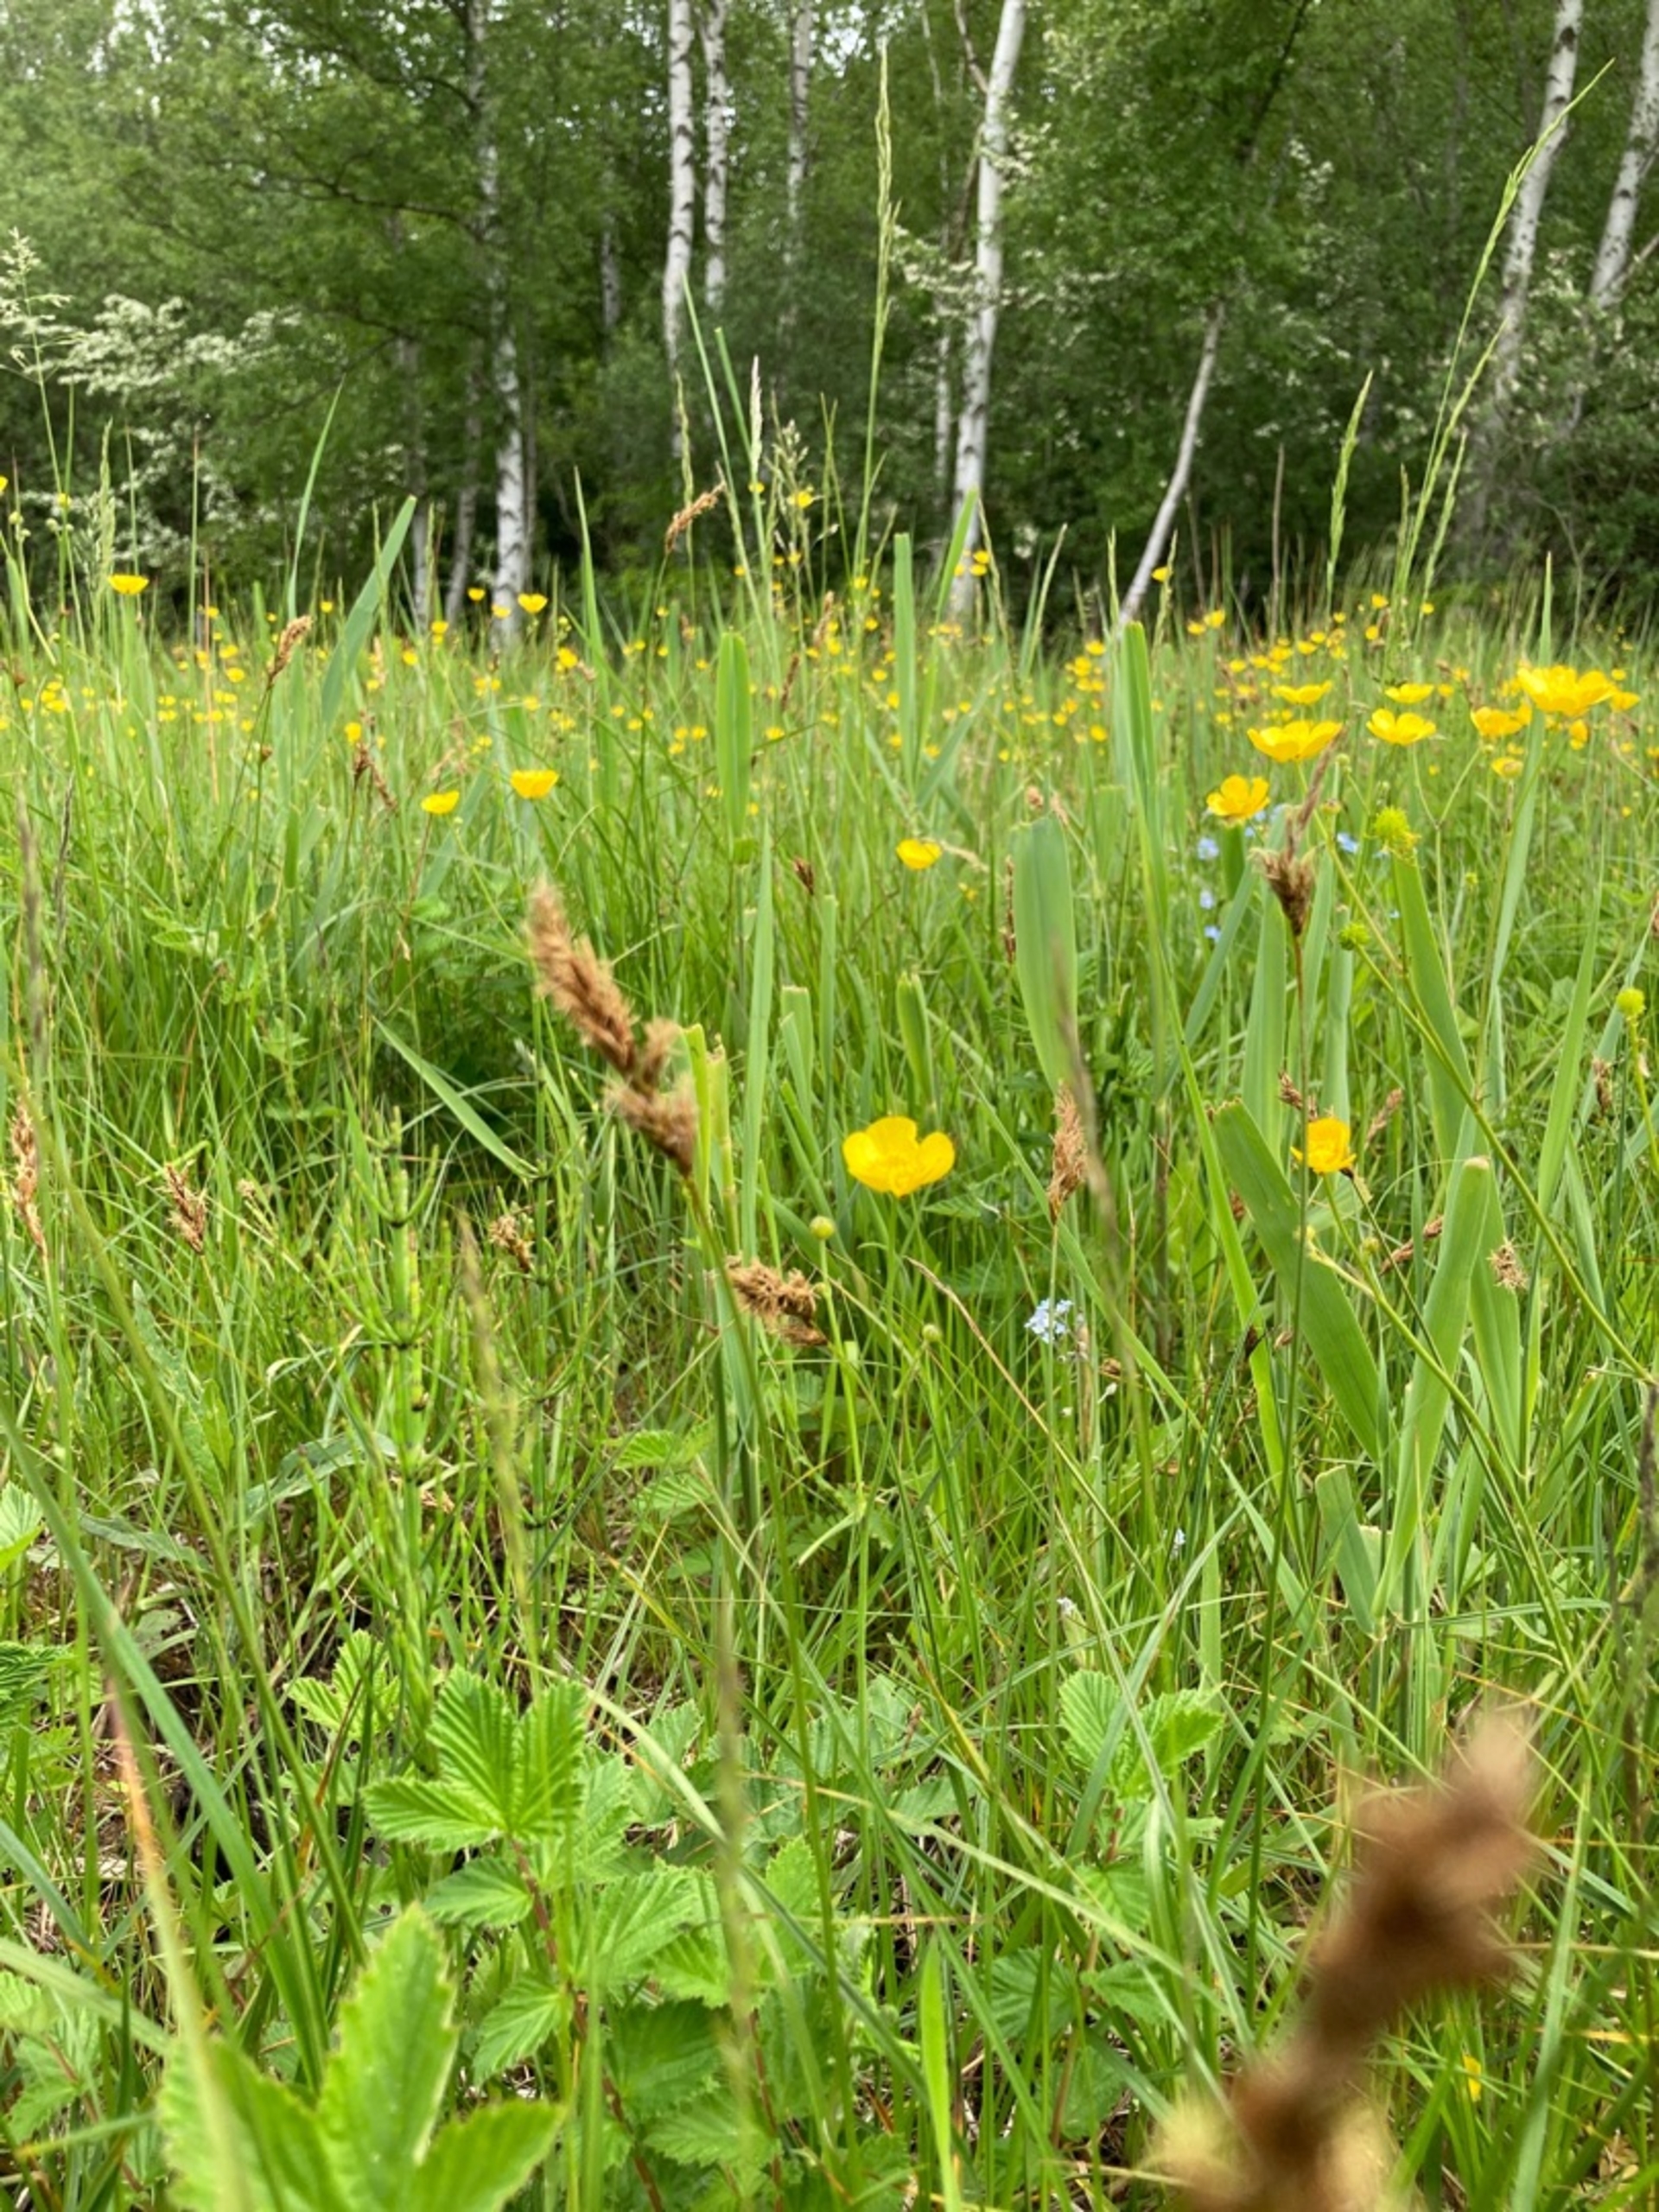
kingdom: Plantae
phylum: Tracheophyta
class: Liliopsida
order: Poales
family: Cyperaceae
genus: Carex
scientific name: Carex disticha
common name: Toradet star
